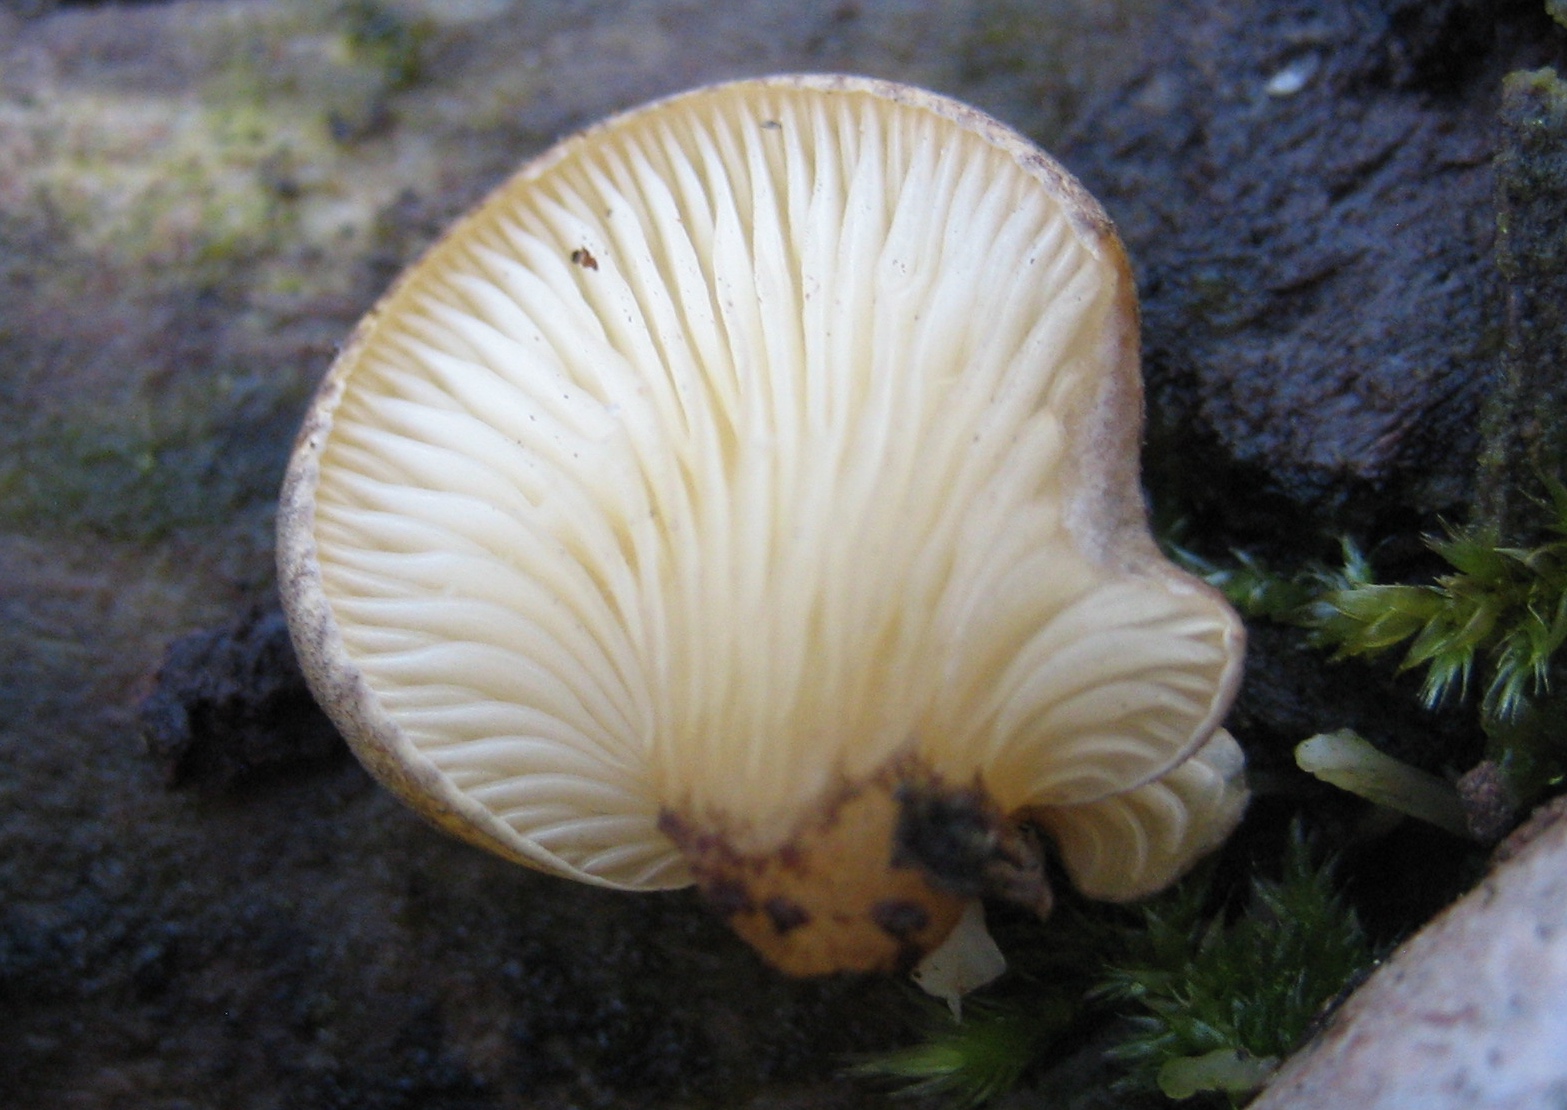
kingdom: Fungi
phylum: Basidiomycota
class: Agaricomycetes
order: Agaricales
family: Sarcomyxaceae
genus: Sarcomyxa
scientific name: Sarcomyxa serotina
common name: gummihat
